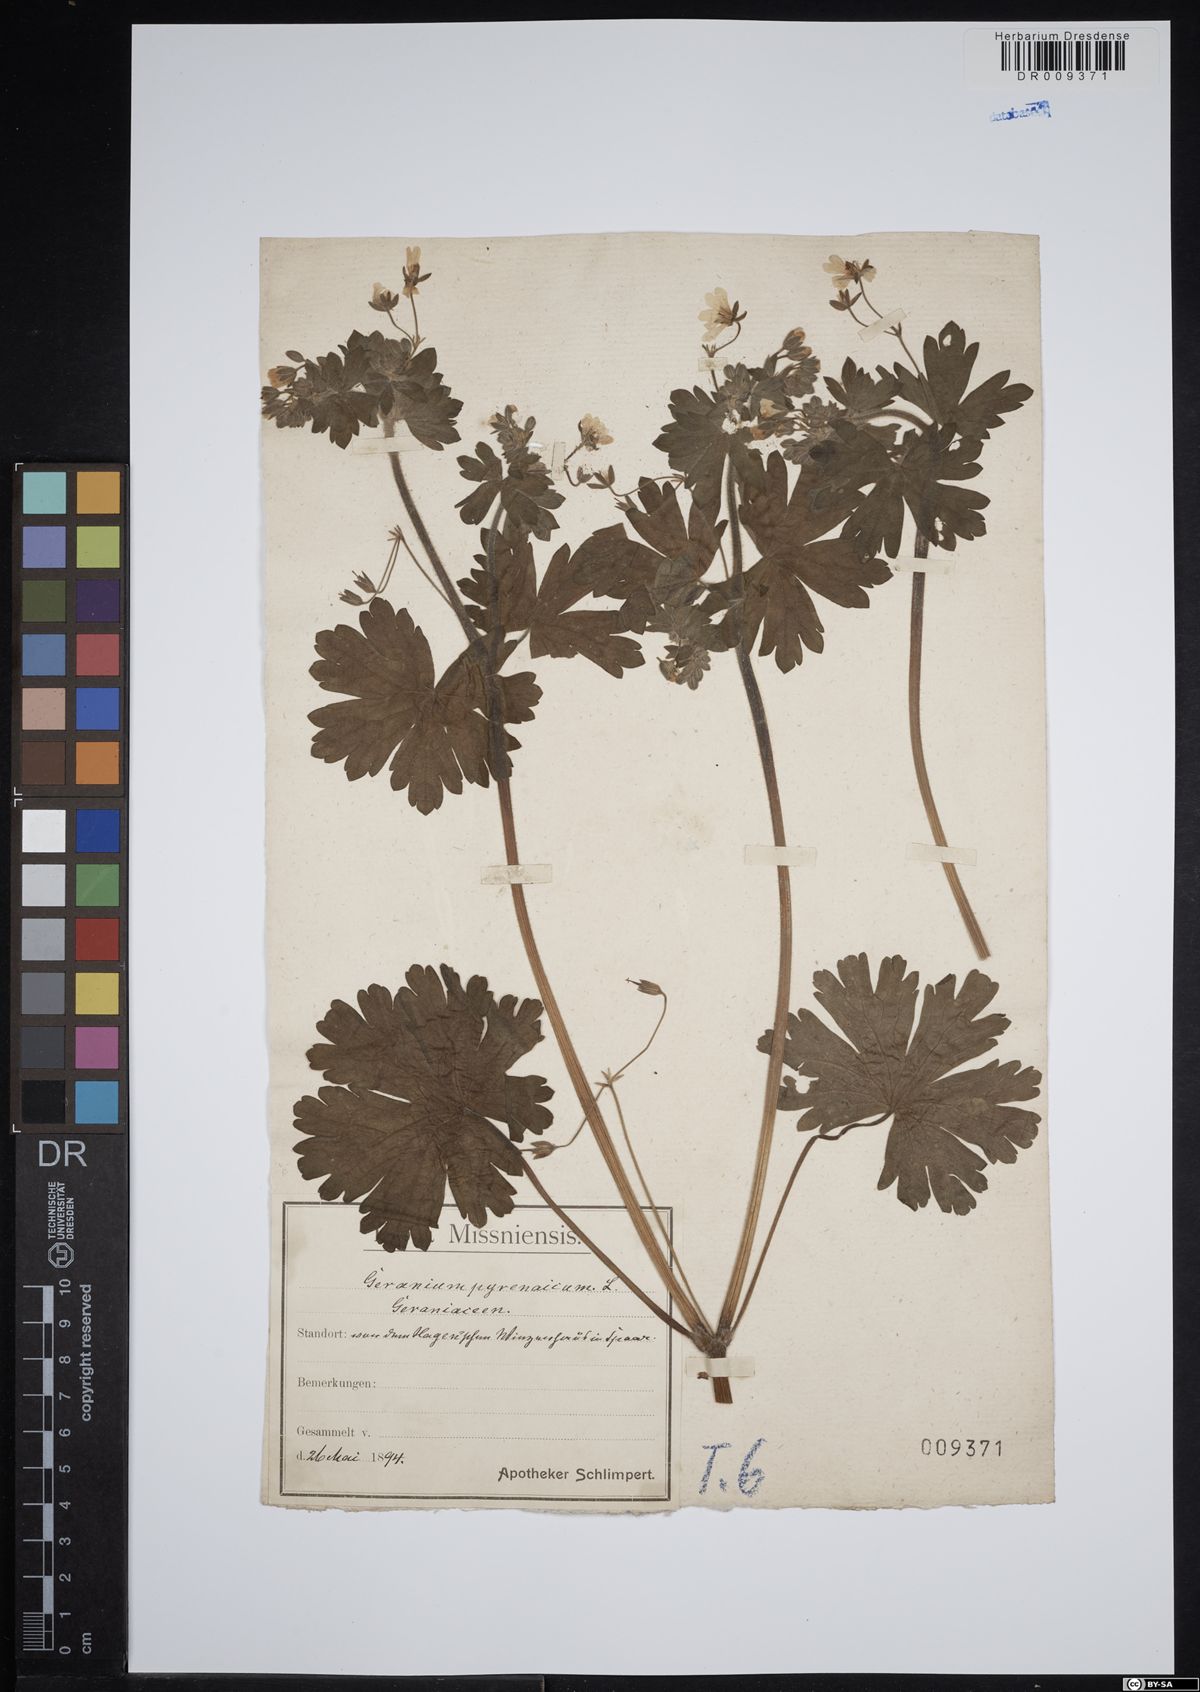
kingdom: Plantae
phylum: Tracheophyta
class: Magnoliopsida
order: Geraniales
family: Geraniaceae
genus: Geranium
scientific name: Geranium pyrenaicum
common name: Hedgerow crane's-bill
